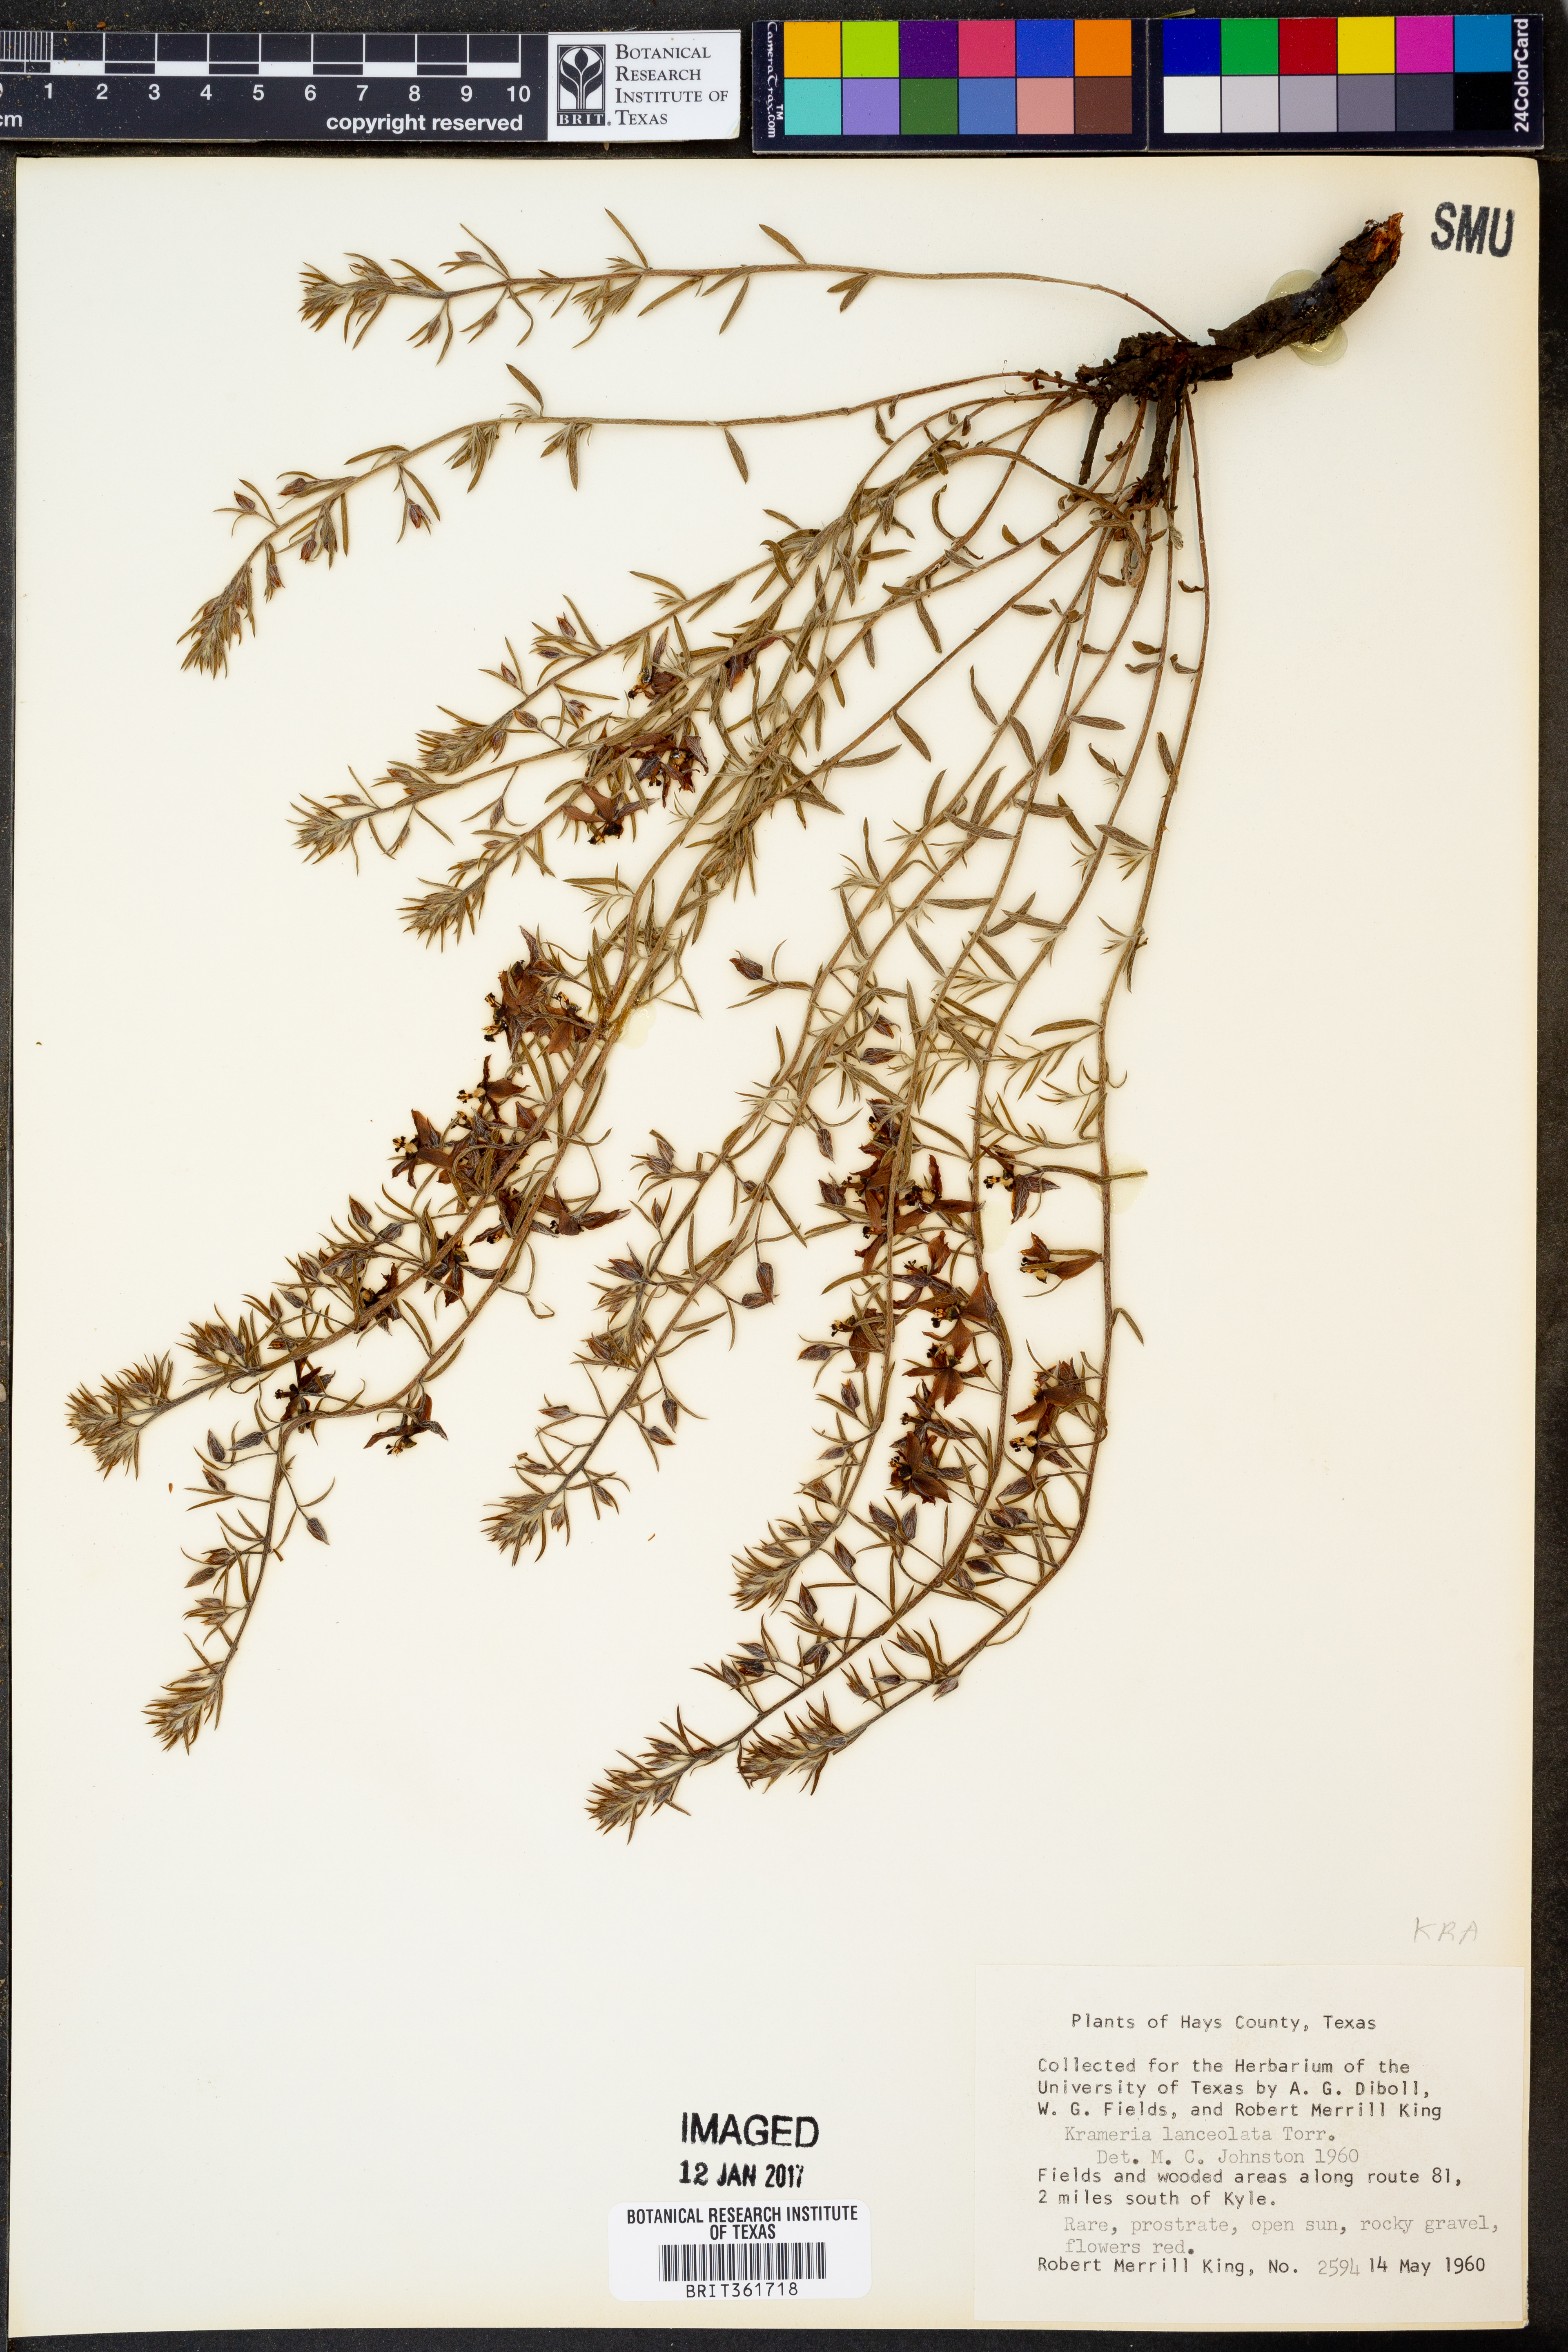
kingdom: Plantae
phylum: Tracheophyta
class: Magnoliopsida
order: Zygophyllales
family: Krameriaceae
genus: Krameria
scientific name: Krameria lanceolata
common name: Ratany
